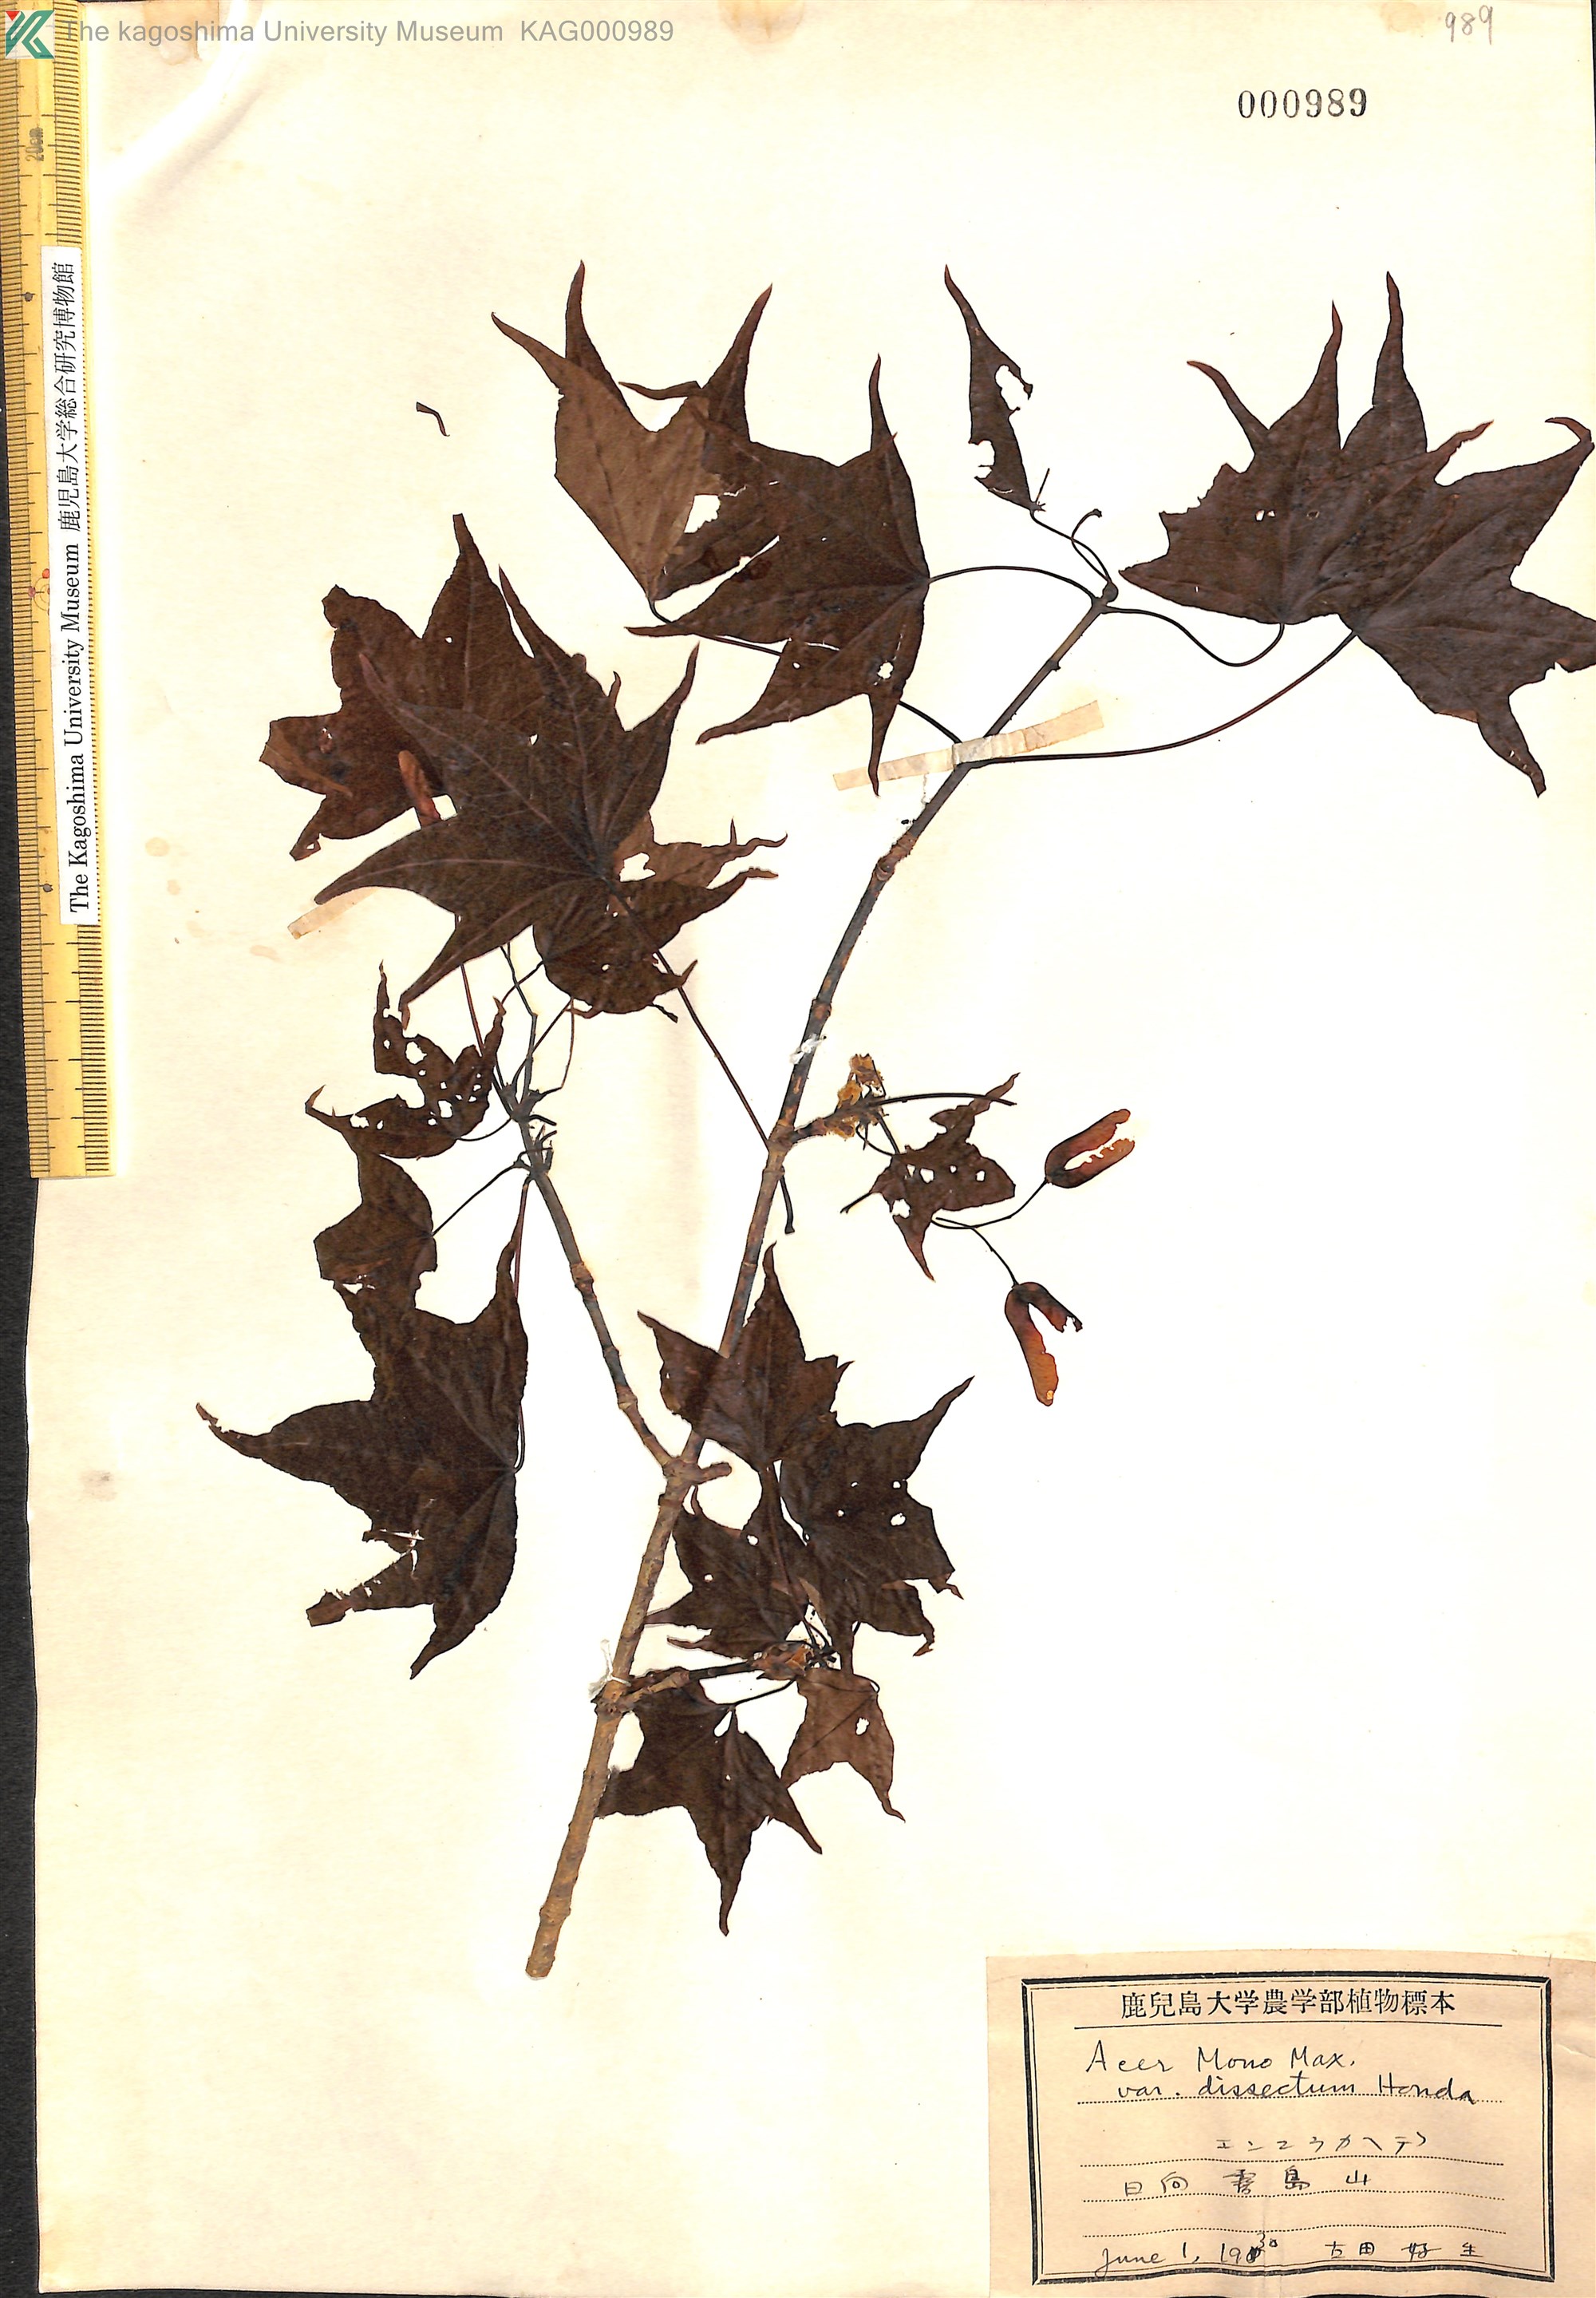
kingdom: Plantae
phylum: Tracheophyta
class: Magnoliopsida
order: Sapindales
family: Sapindaceae
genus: Acer
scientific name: Acer pictum
